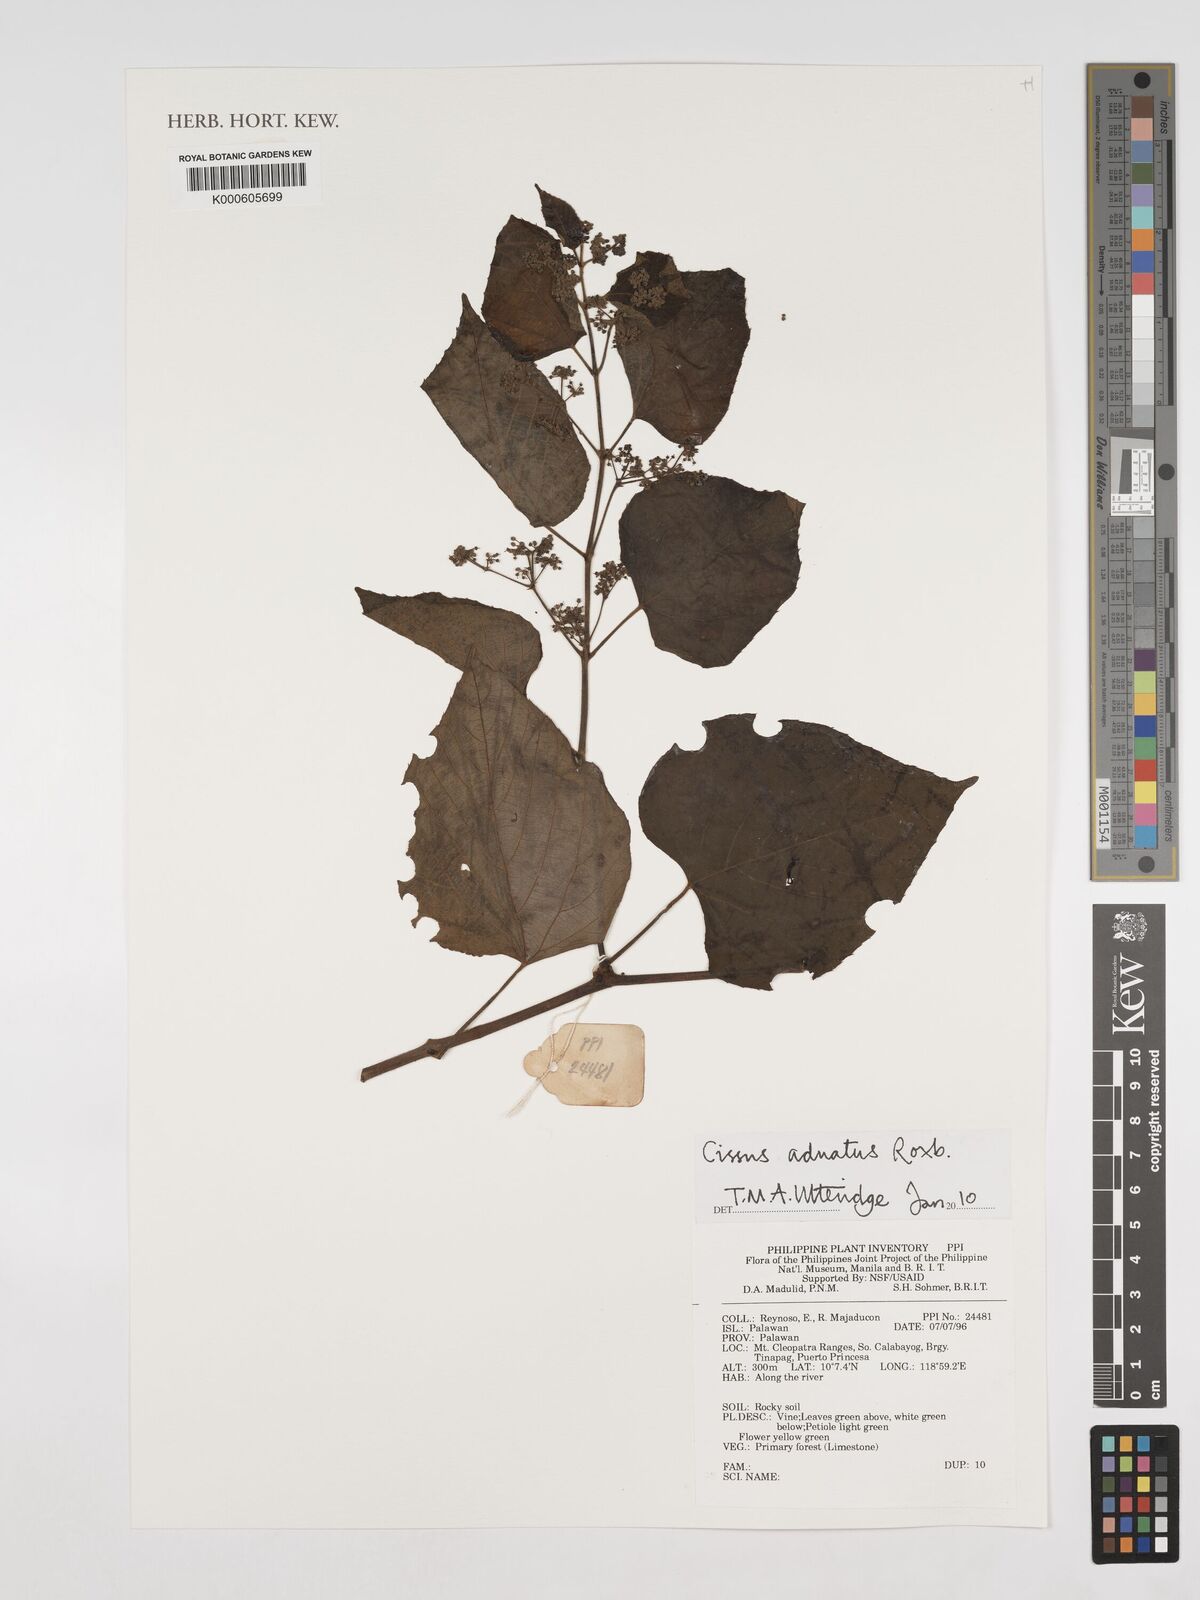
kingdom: Plantae
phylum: Tracheophyta
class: Magnoliopsida
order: Vitales
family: Vitaceae
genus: Cissus
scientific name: Cissus adnata
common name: Heart-leaf-grape
